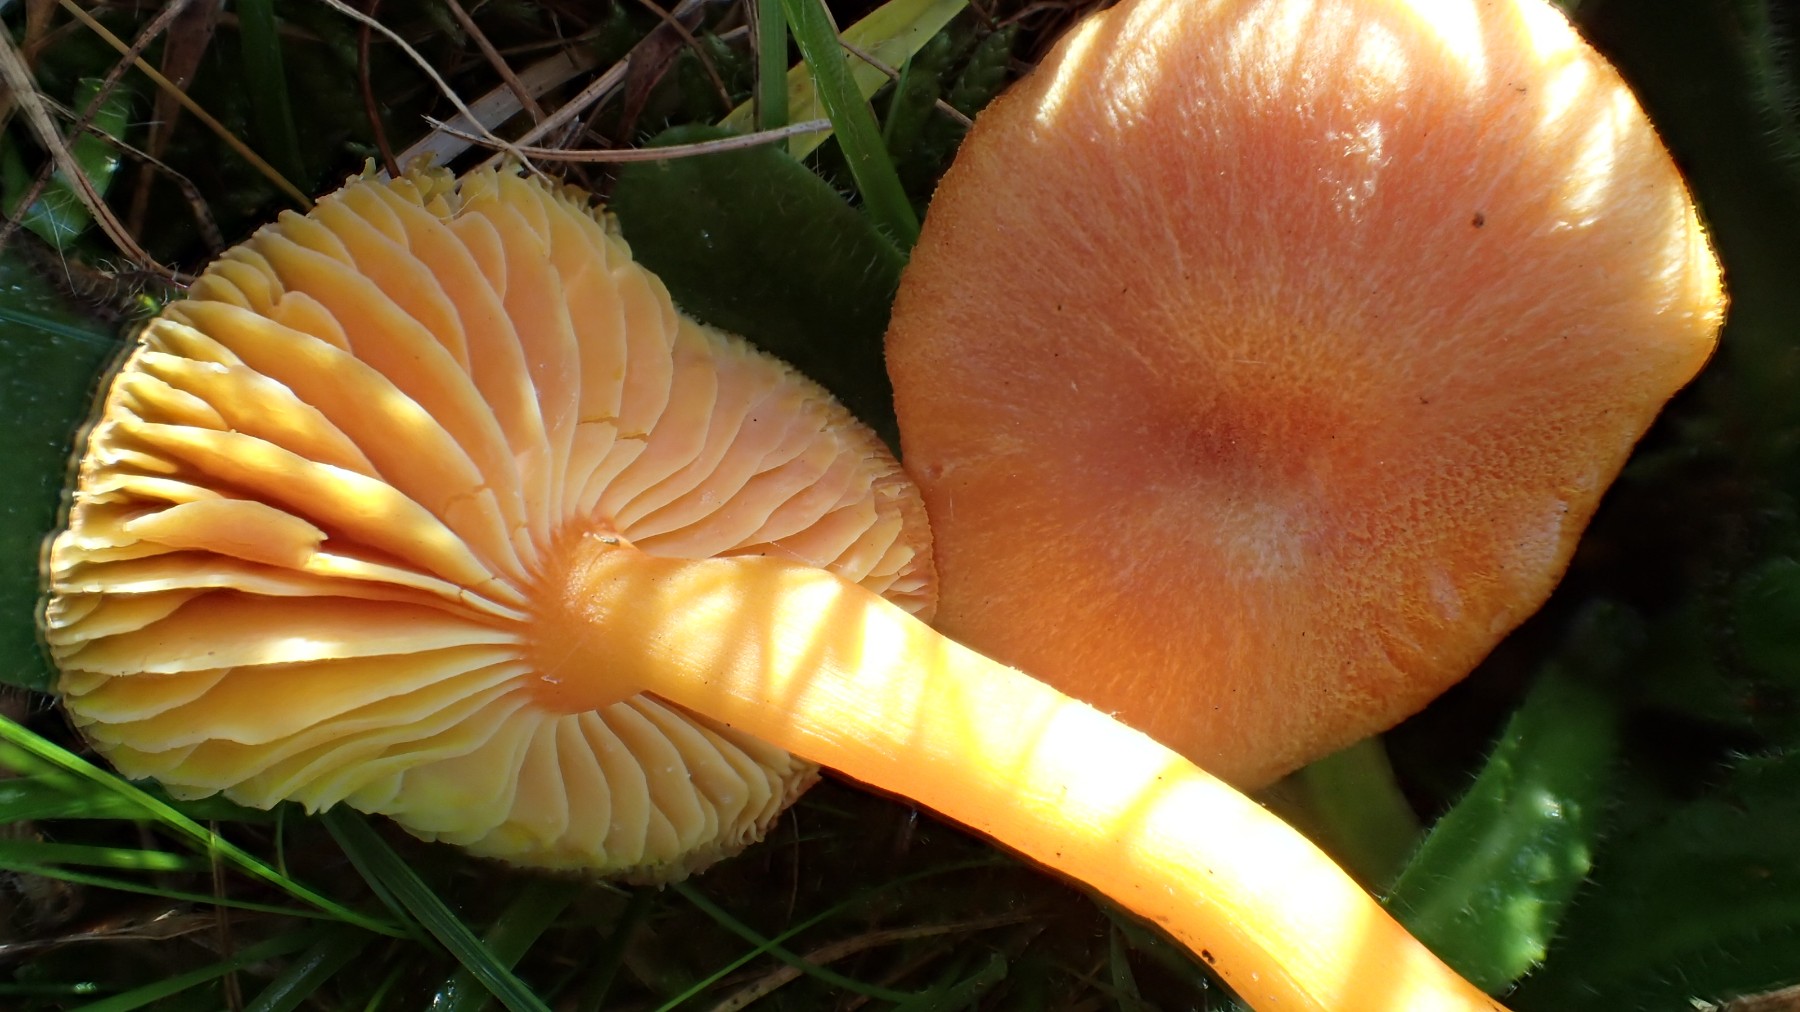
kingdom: Fungi
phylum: Basidiomycota
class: Agaricomycetes
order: Agaricales
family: Hygrophoraceae
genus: Hygrocybe
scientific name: Hygrocybe reidii
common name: honning-vokshat
